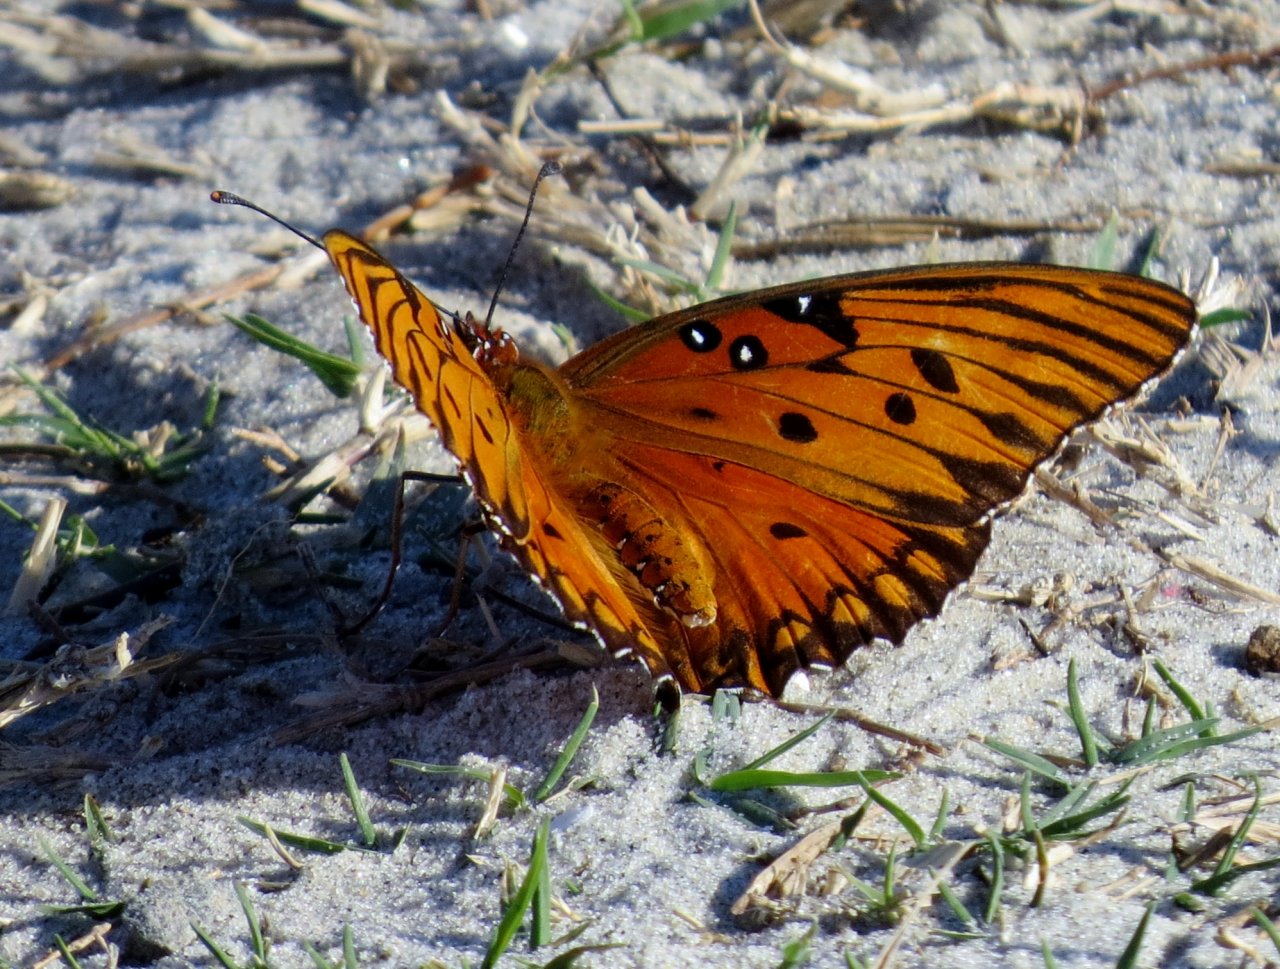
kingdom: Animalia
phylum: Arthropoda
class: Insecta
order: Lepidoptera
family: Nymphalidae
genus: Dione
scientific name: Dione vanillae
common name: Gulf Fritillary
